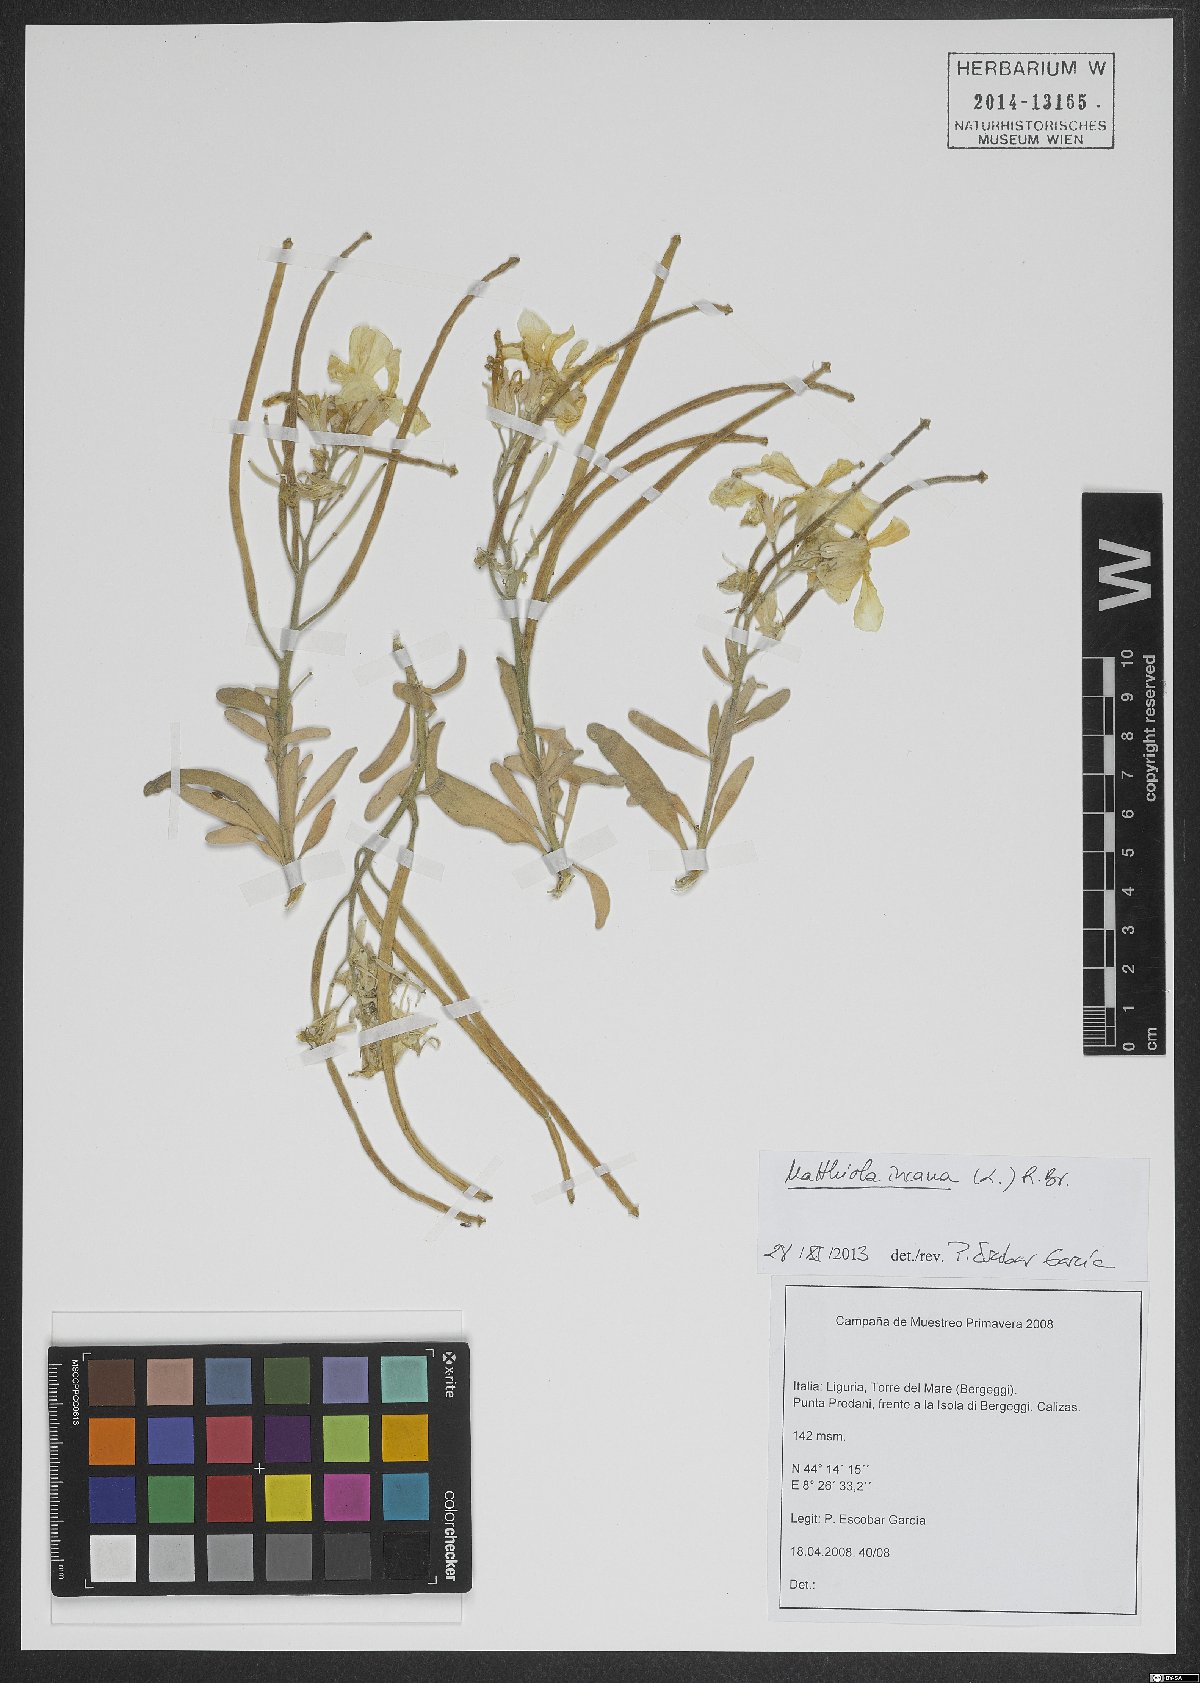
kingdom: Plantae
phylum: Tracheophyta
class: Magnoliopsida
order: Brassicales
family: Brassicaceae
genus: Matthiola
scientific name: Matthiola incana
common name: Hoary stock
